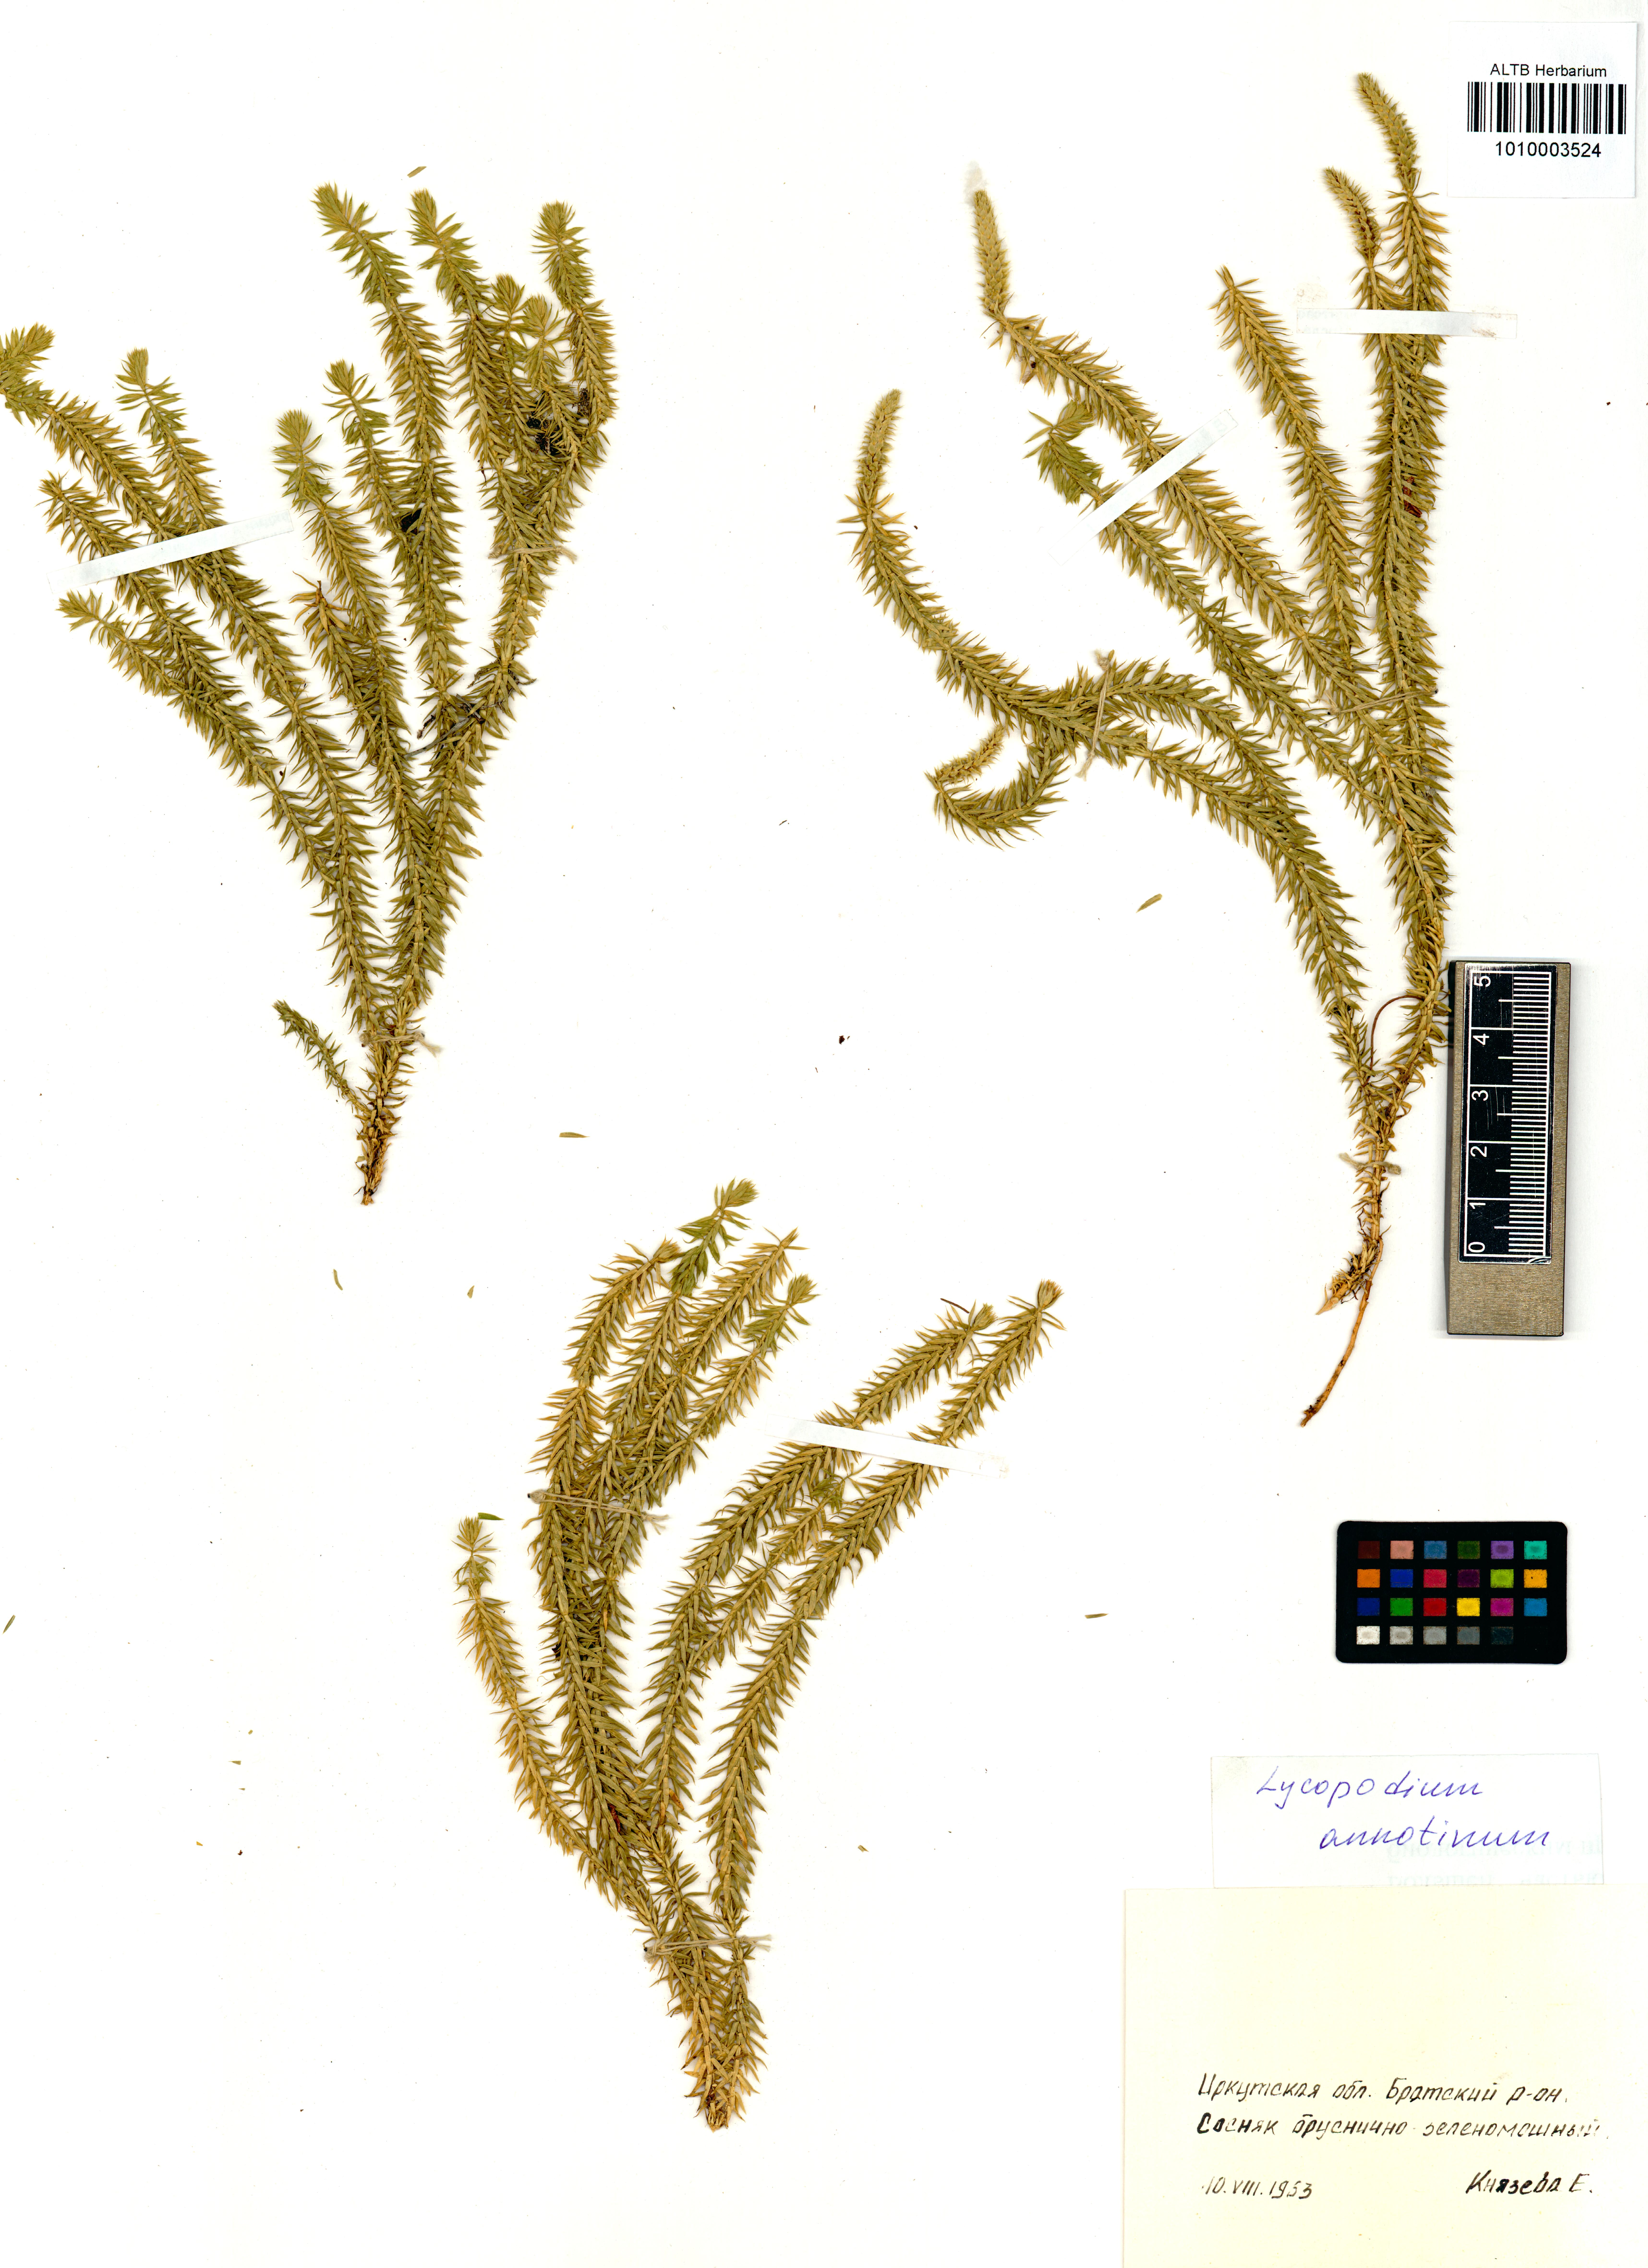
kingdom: Plantae
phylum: Tracheophyta
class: Lycopodiopsida
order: Lycopodiales
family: Lycopodiaceae
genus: Spinulum
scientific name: Spinulum annotinum
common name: Interrupted club-moss
